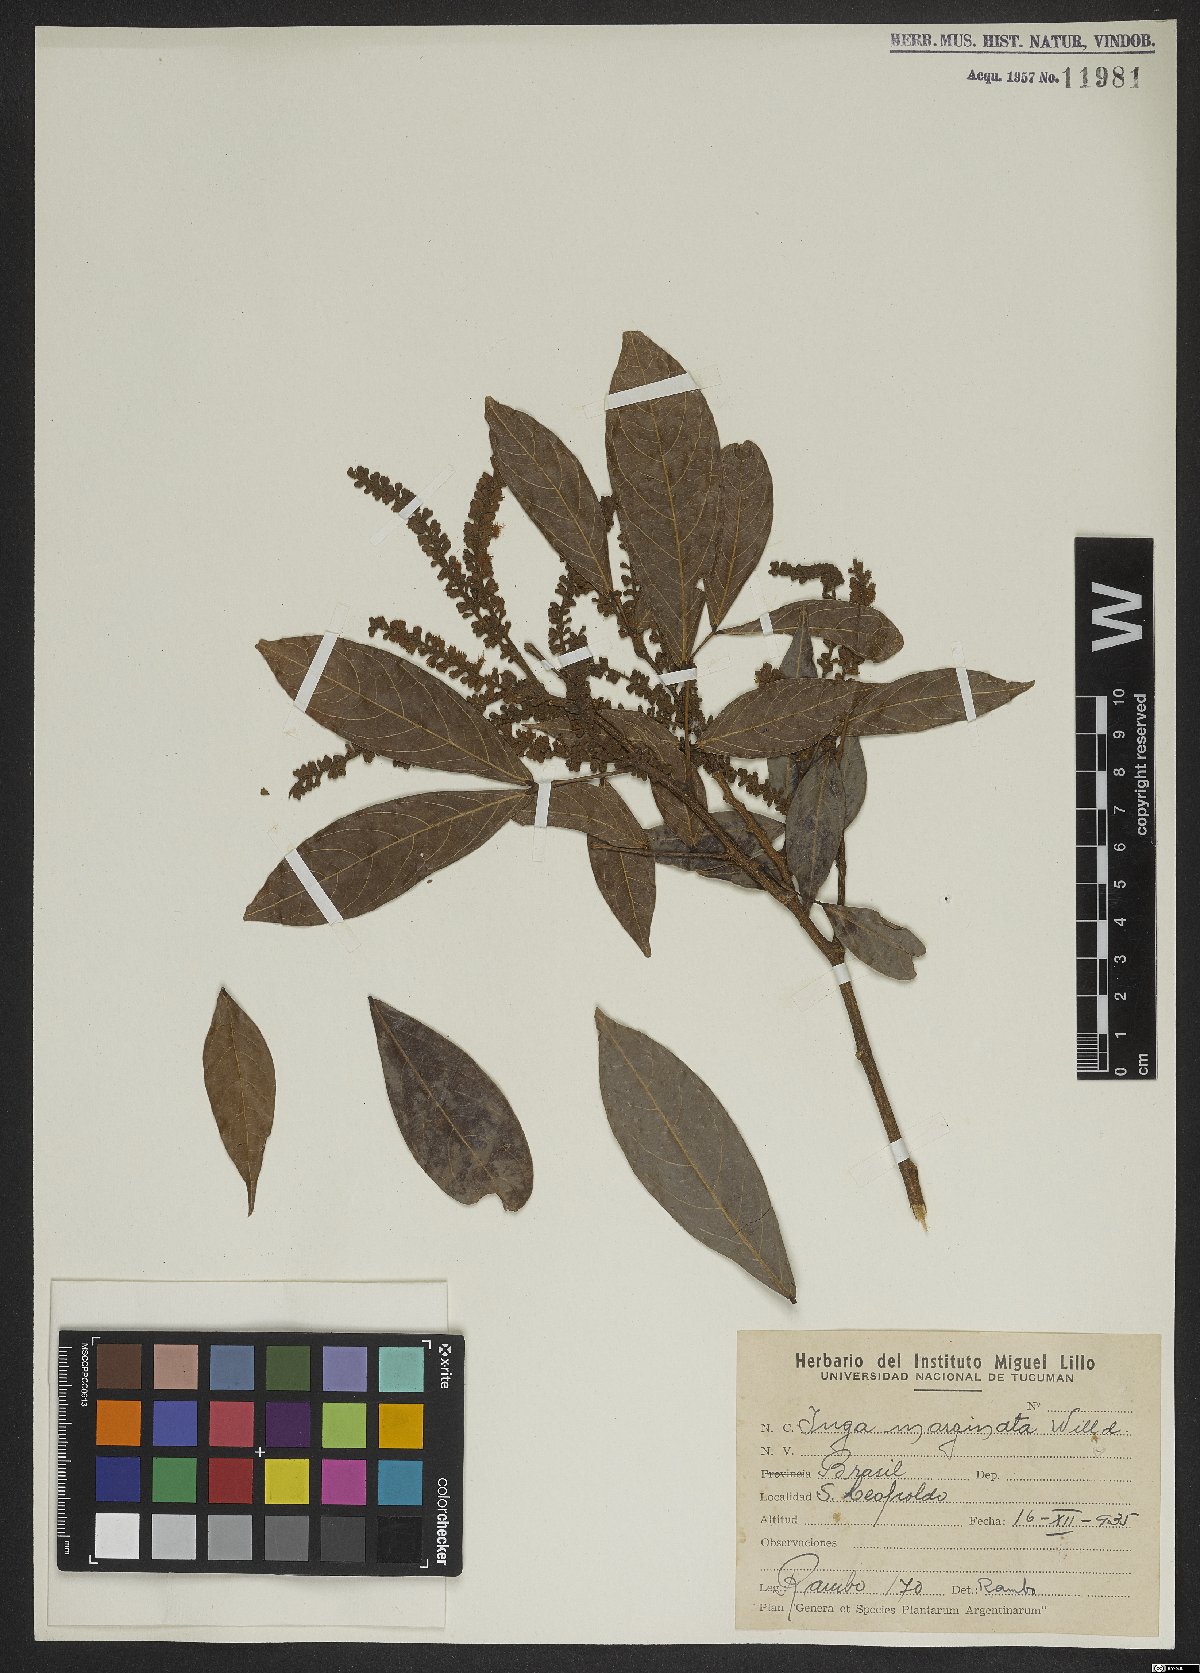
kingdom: Plantae
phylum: Tracheophyta
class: Magnoliopsida
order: Fabales
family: Fabaceae
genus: Inga
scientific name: Inga marginata
